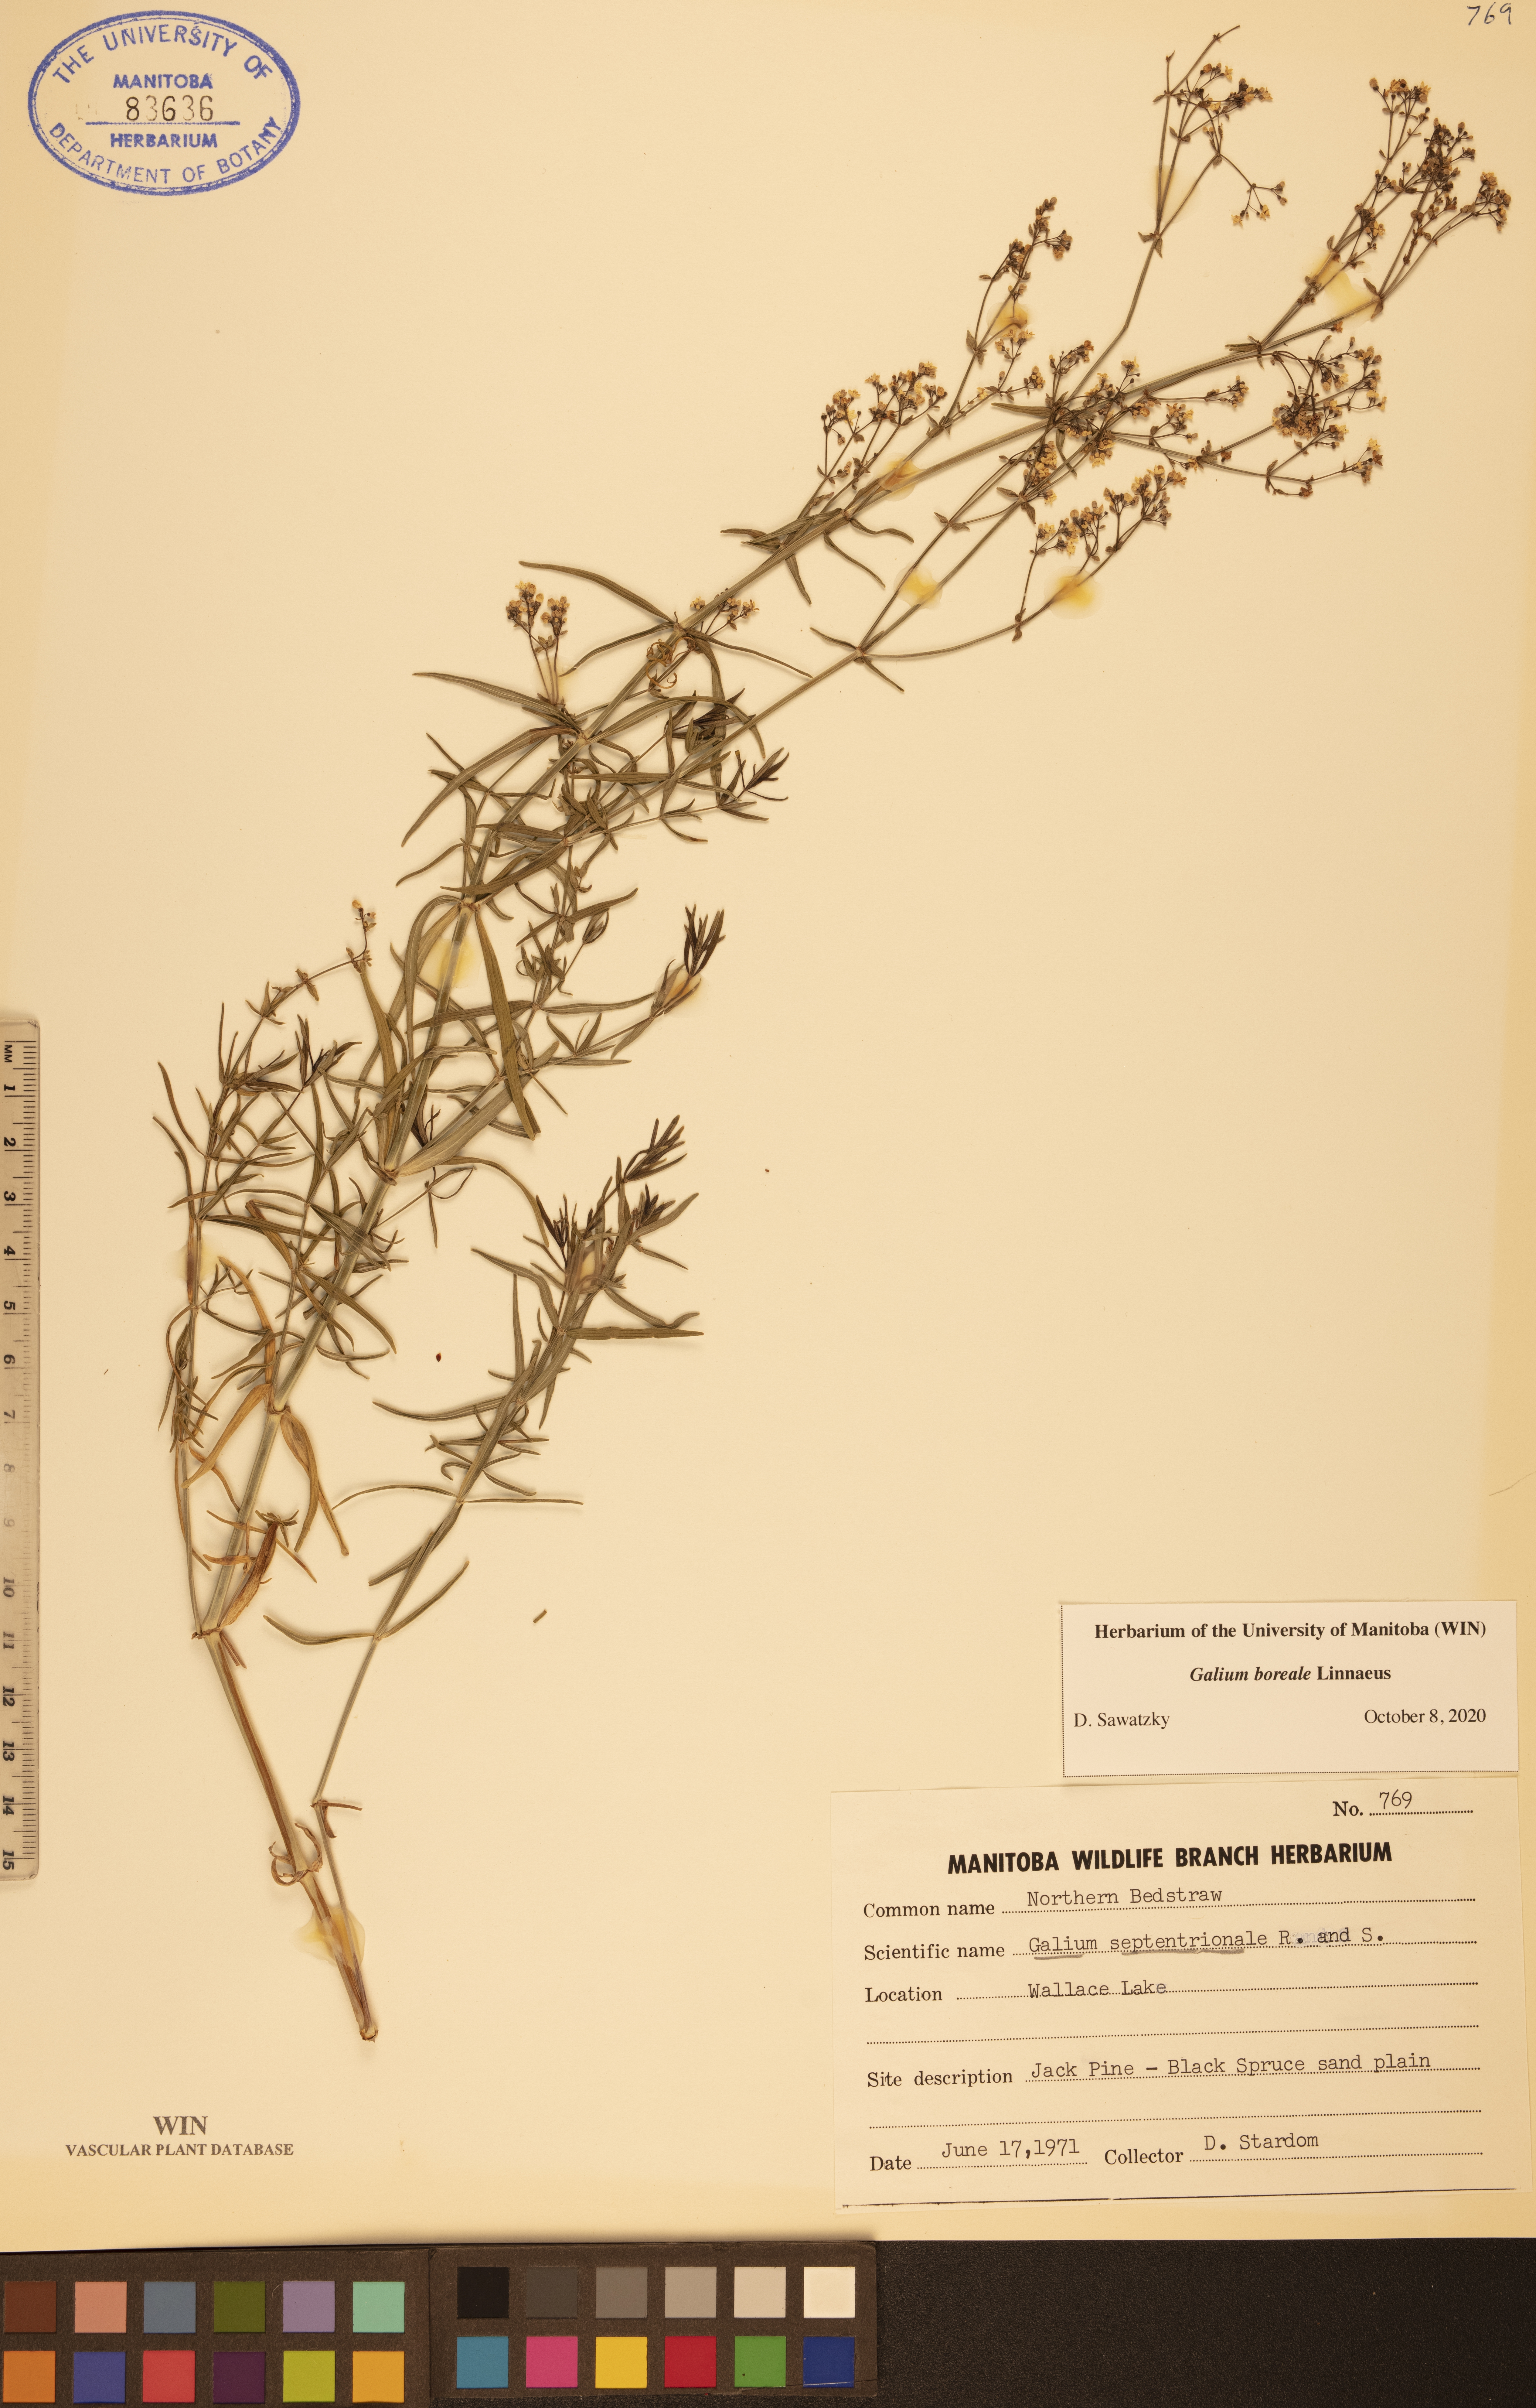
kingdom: Plantae
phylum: Tracheophyta
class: Magnoliopsida
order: Gentianales
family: Rubiaceae
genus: Galium
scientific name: Galium boreale
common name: Northern bedstraw
